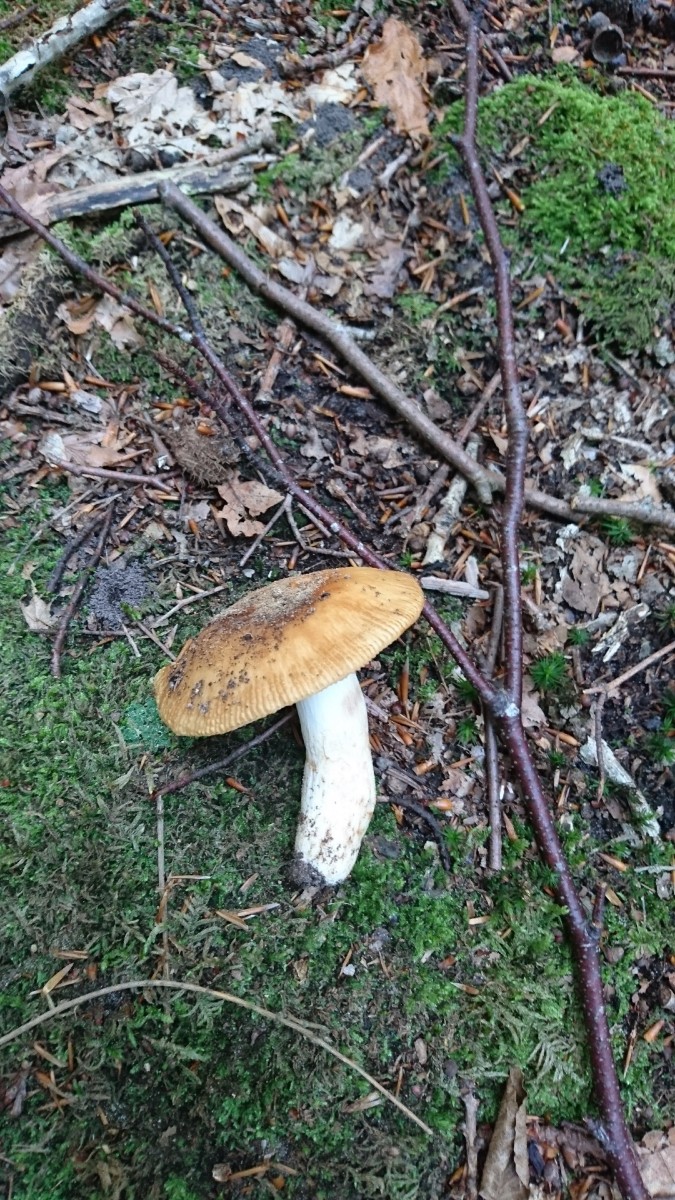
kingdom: Fungi
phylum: Basidiomycota
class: Agaricomycetes
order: Russulales
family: Russulaceae
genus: Russula
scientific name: Russula grata
